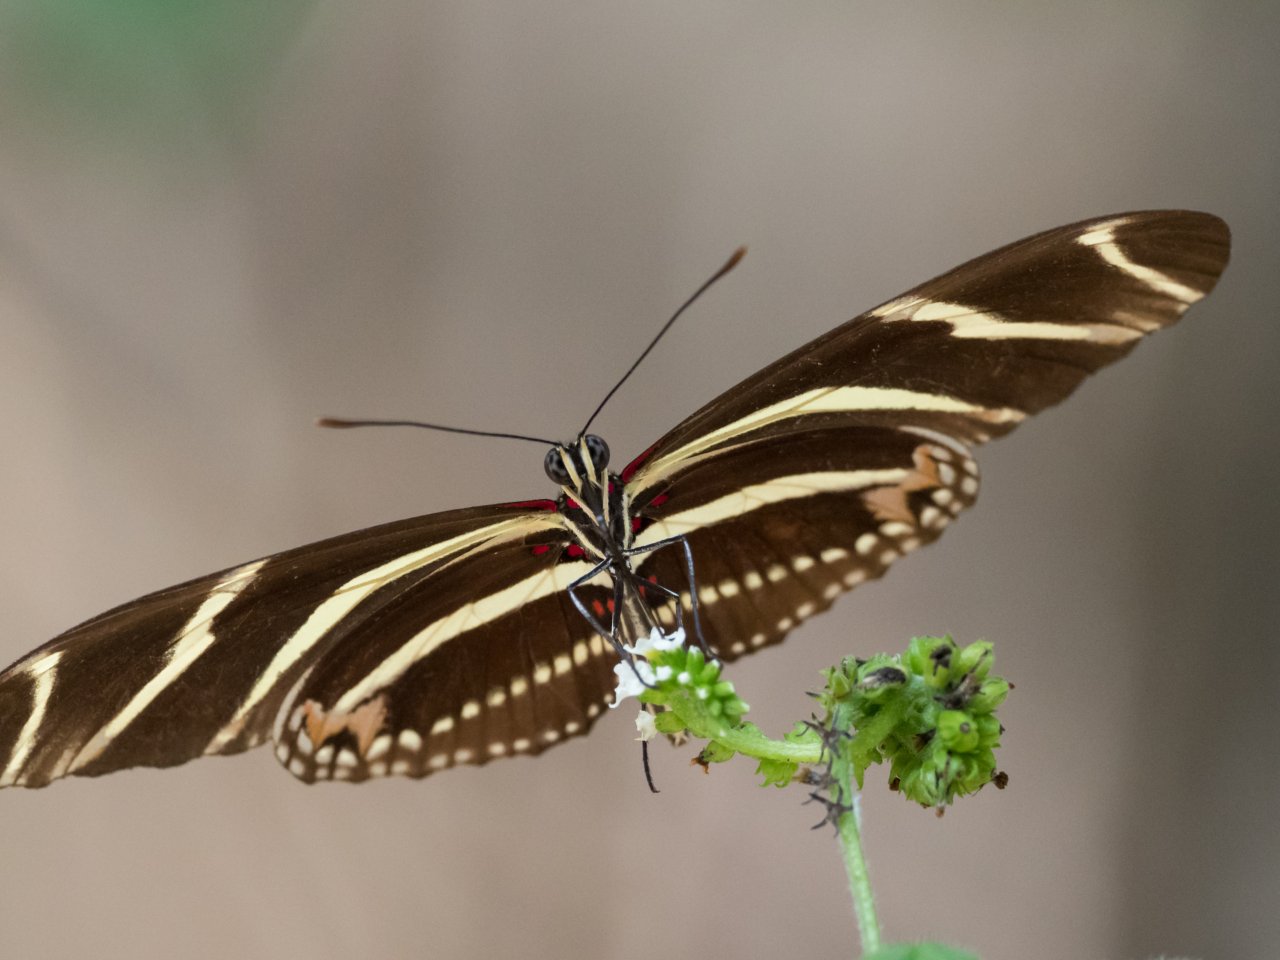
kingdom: Animalia
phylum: Arthropoda
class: Insecta
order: Lepidoptera
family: Nymphalidae
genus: Heliconius
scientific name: Heliconius charithonia
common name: Zebra Longwing
